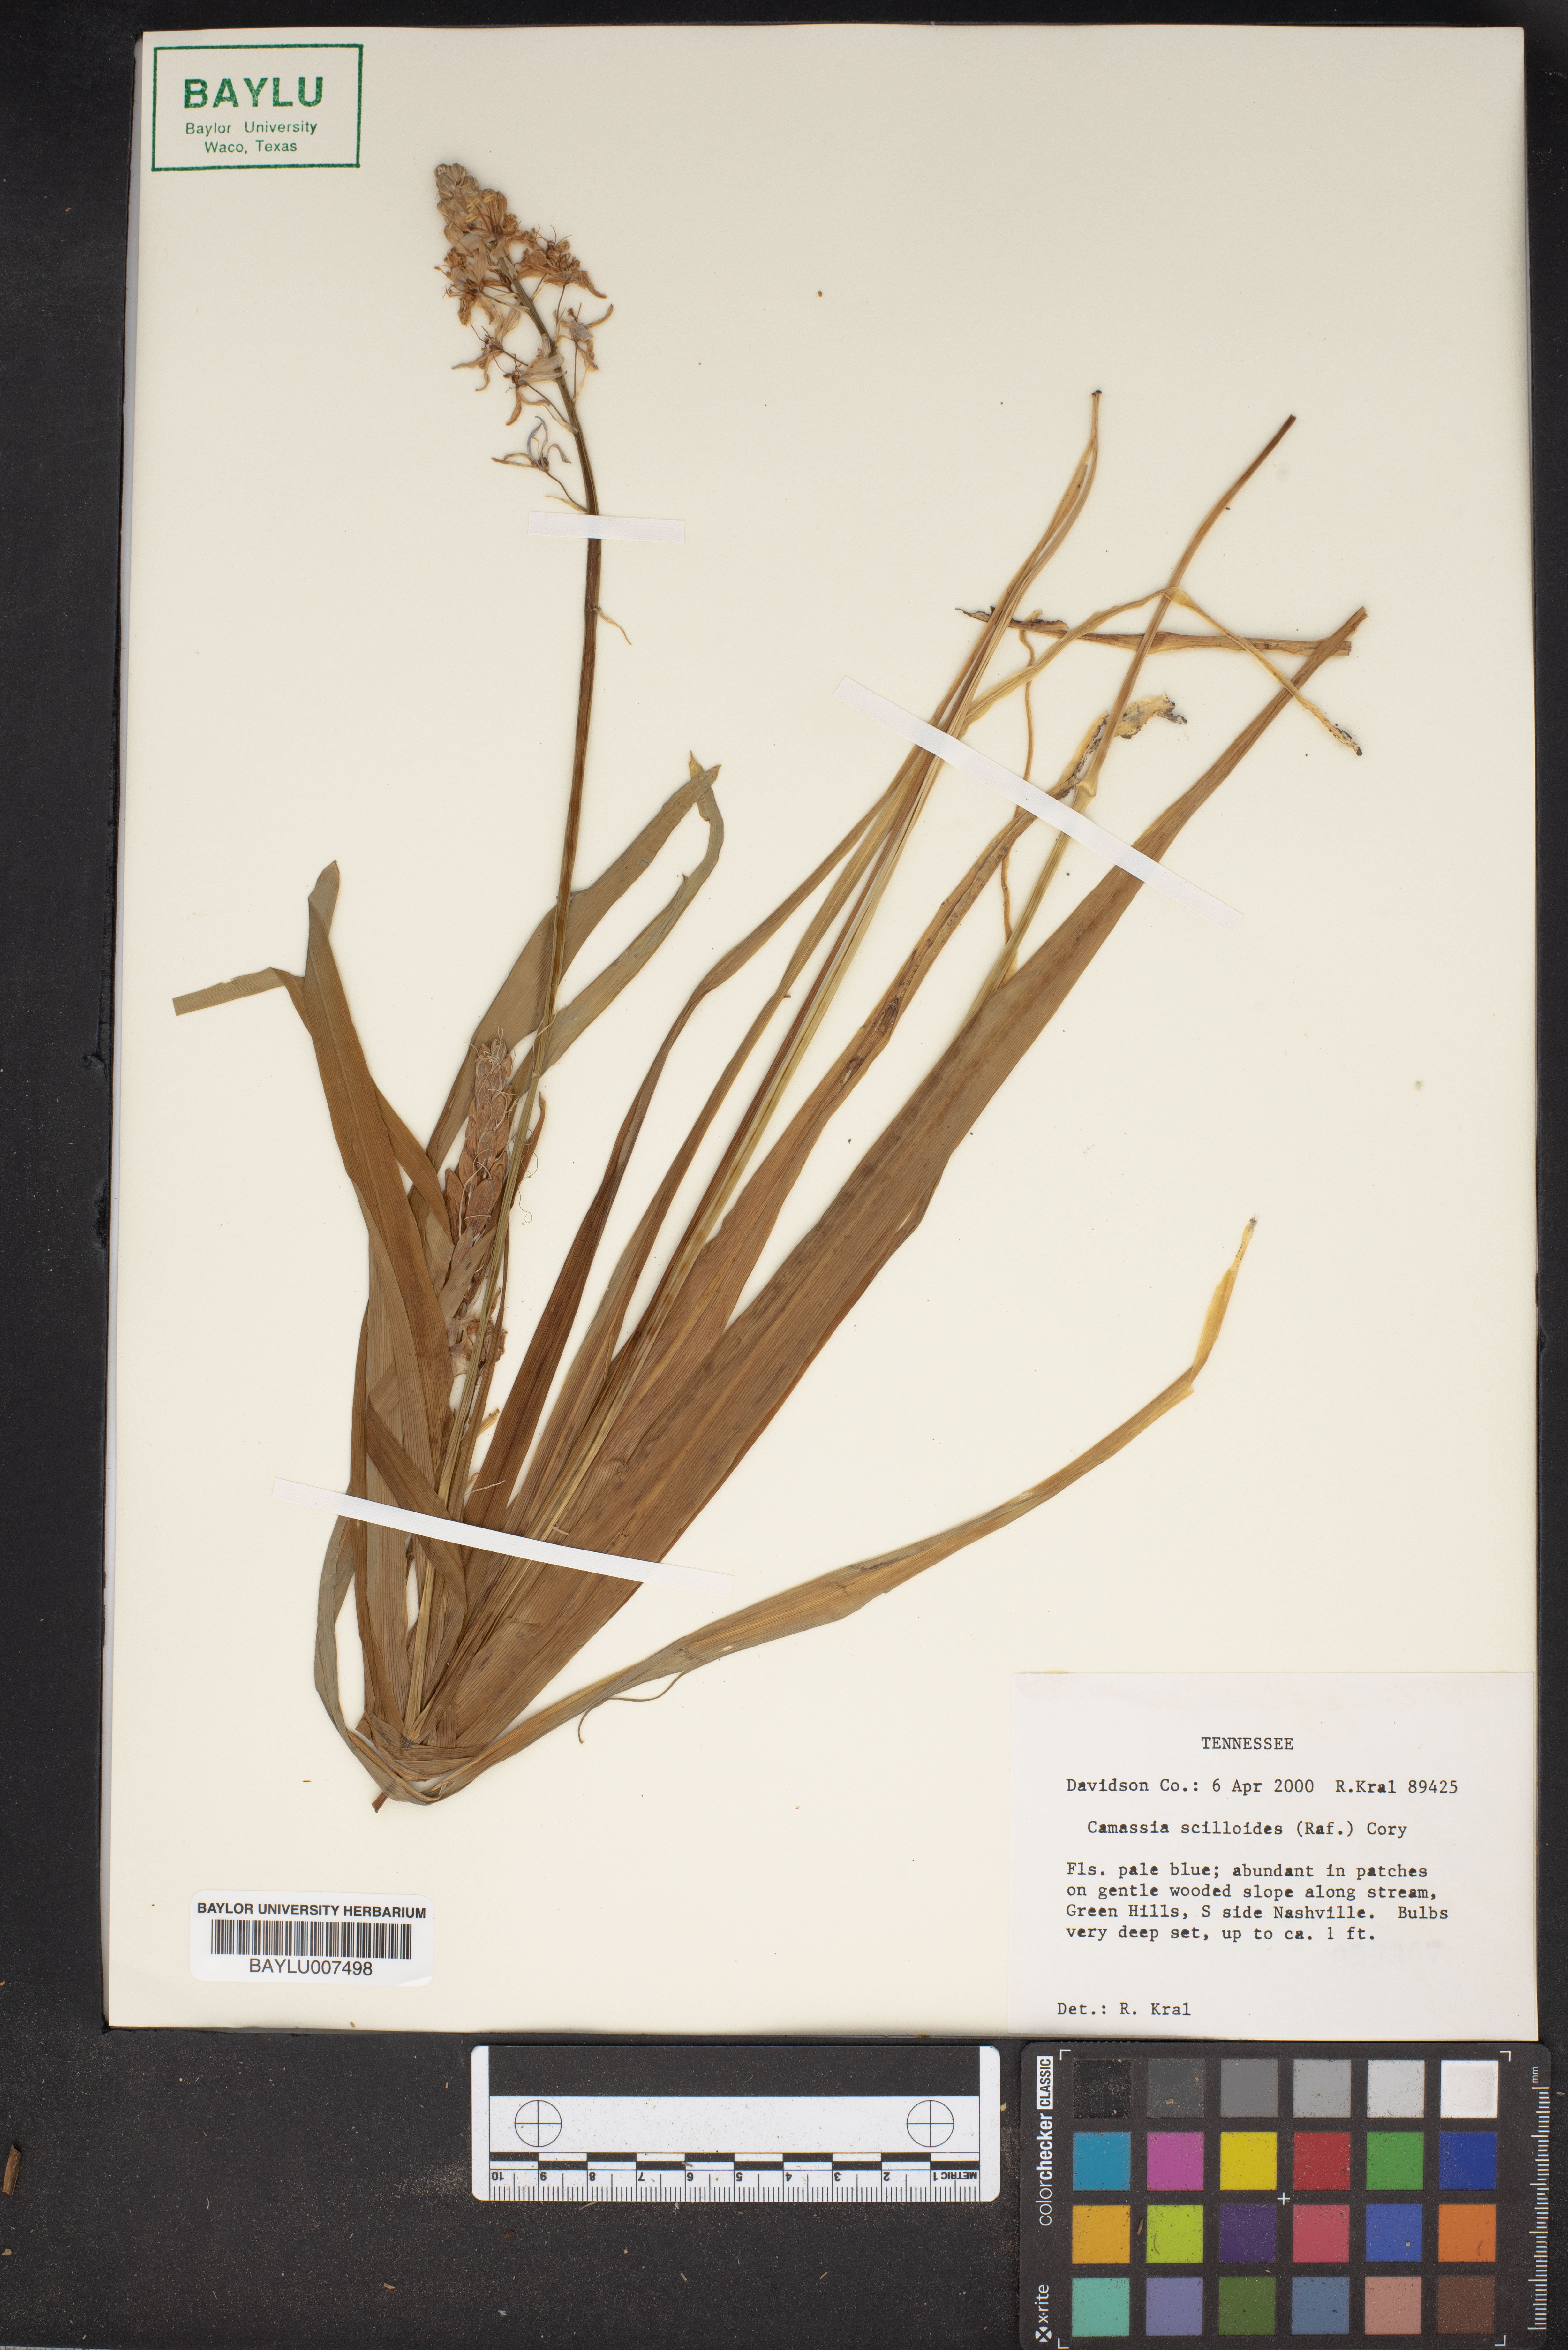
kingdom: Plantae
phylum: Tracheophyta
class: Liliopsida
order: Asparagales
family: Asparagaceae
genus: Camassia
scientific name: Camassia scilloides
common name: Wild hyacinth
